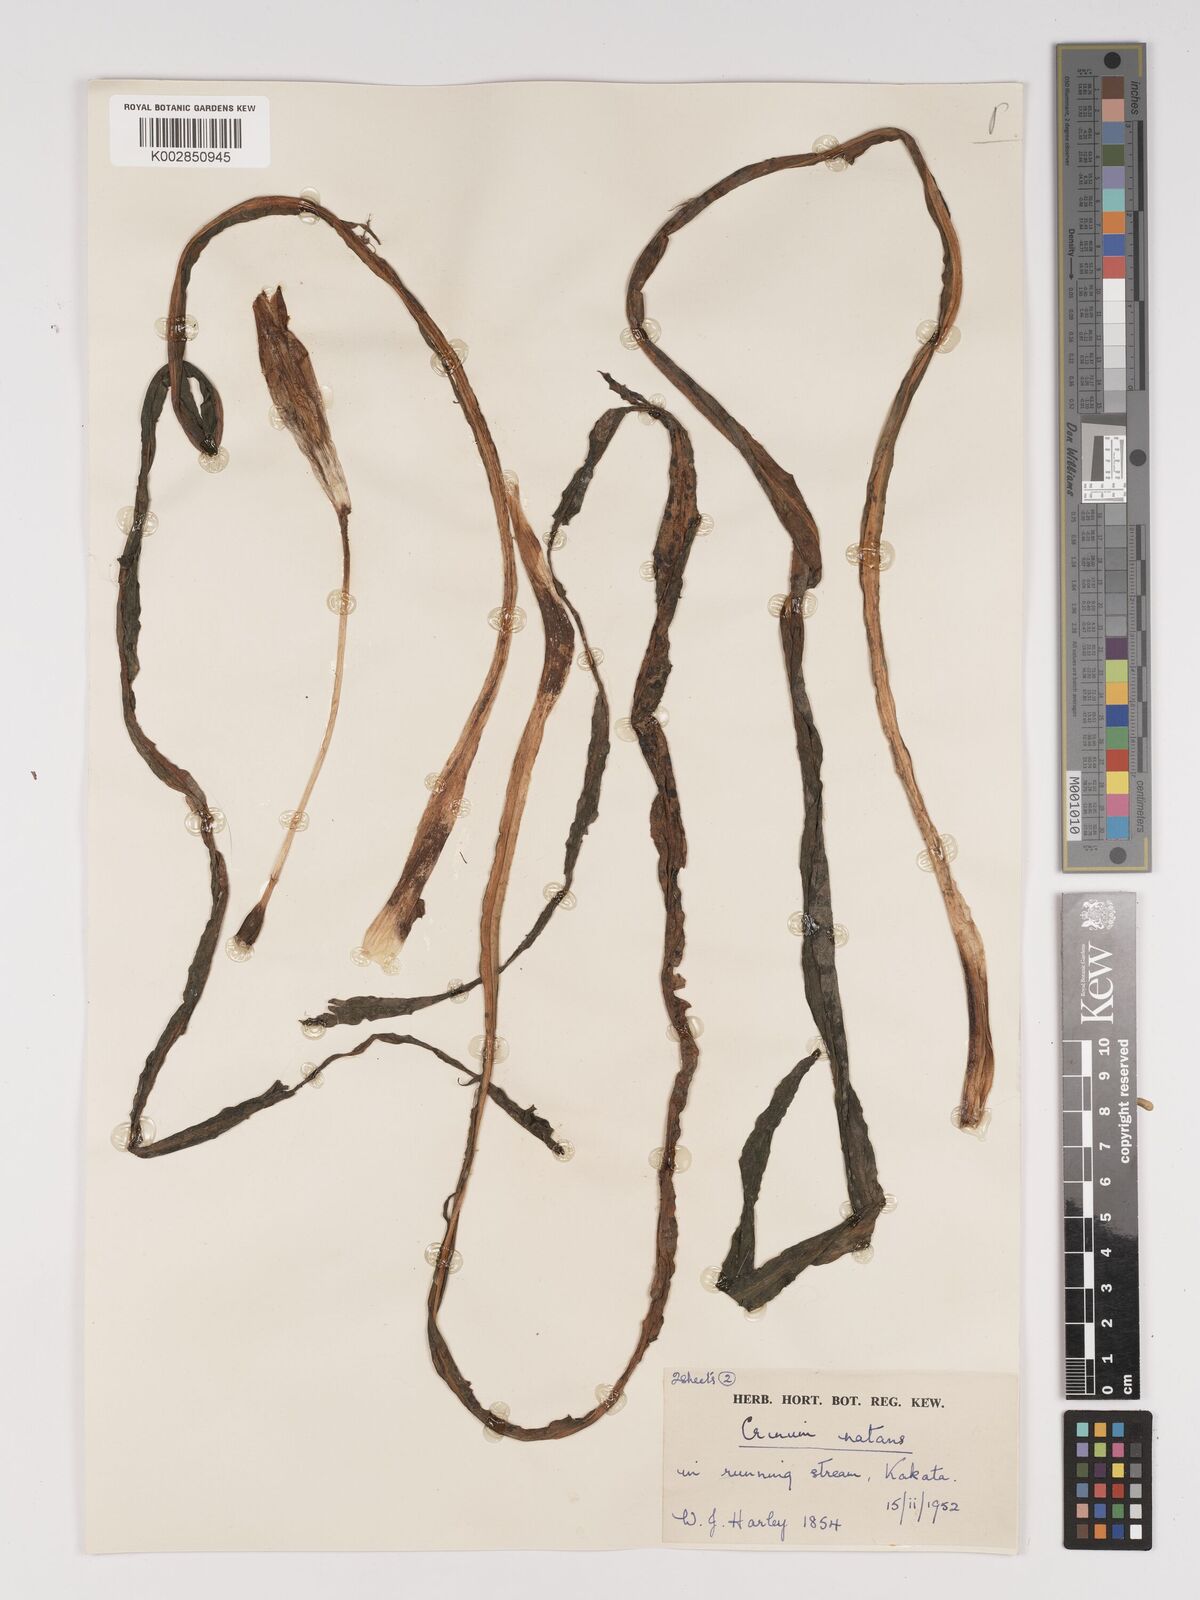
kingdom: Plantae
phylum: Tracheophyta
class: Liliopsida
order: Asparagales
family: Amaryllidaceae
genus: Crinum
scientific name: Crinum moorei
